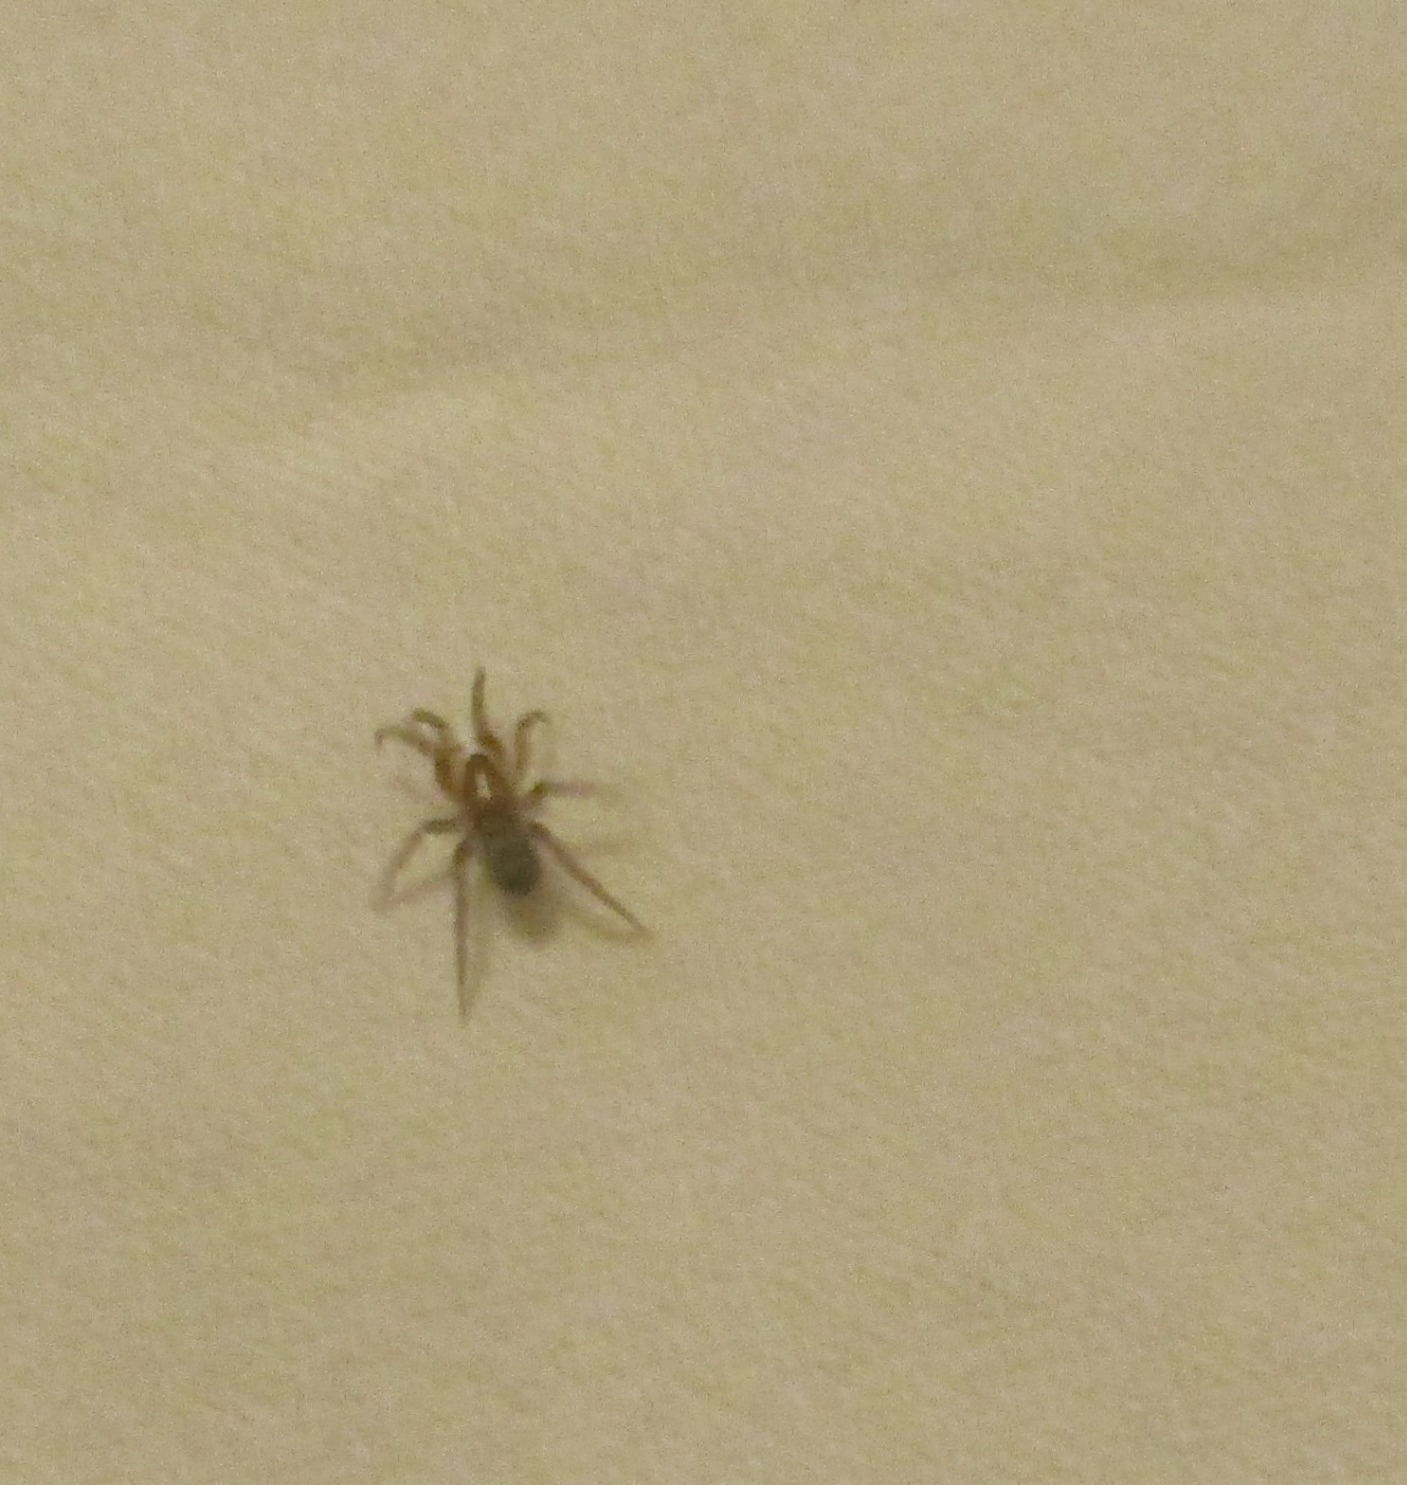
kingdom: Animalia
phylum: Arthropoda
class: Arachnida
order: Araneae
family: Gnaphosidae
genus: Scotophaeus
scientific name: Scotophaeus
